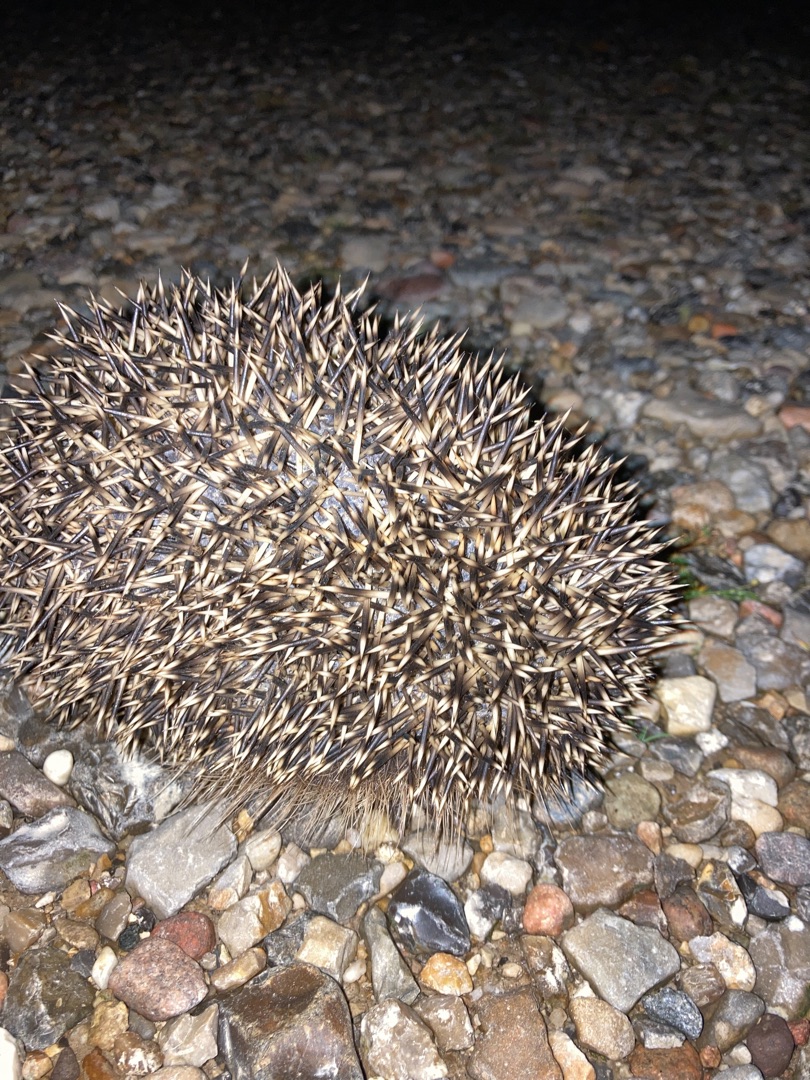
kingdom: Animalia
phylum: Chordata
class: Mammalia
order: Erinaceomorpha
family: Erinaceidae
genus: Erinaceus
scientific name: Erinaceus europaeus
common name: Pindsvin
